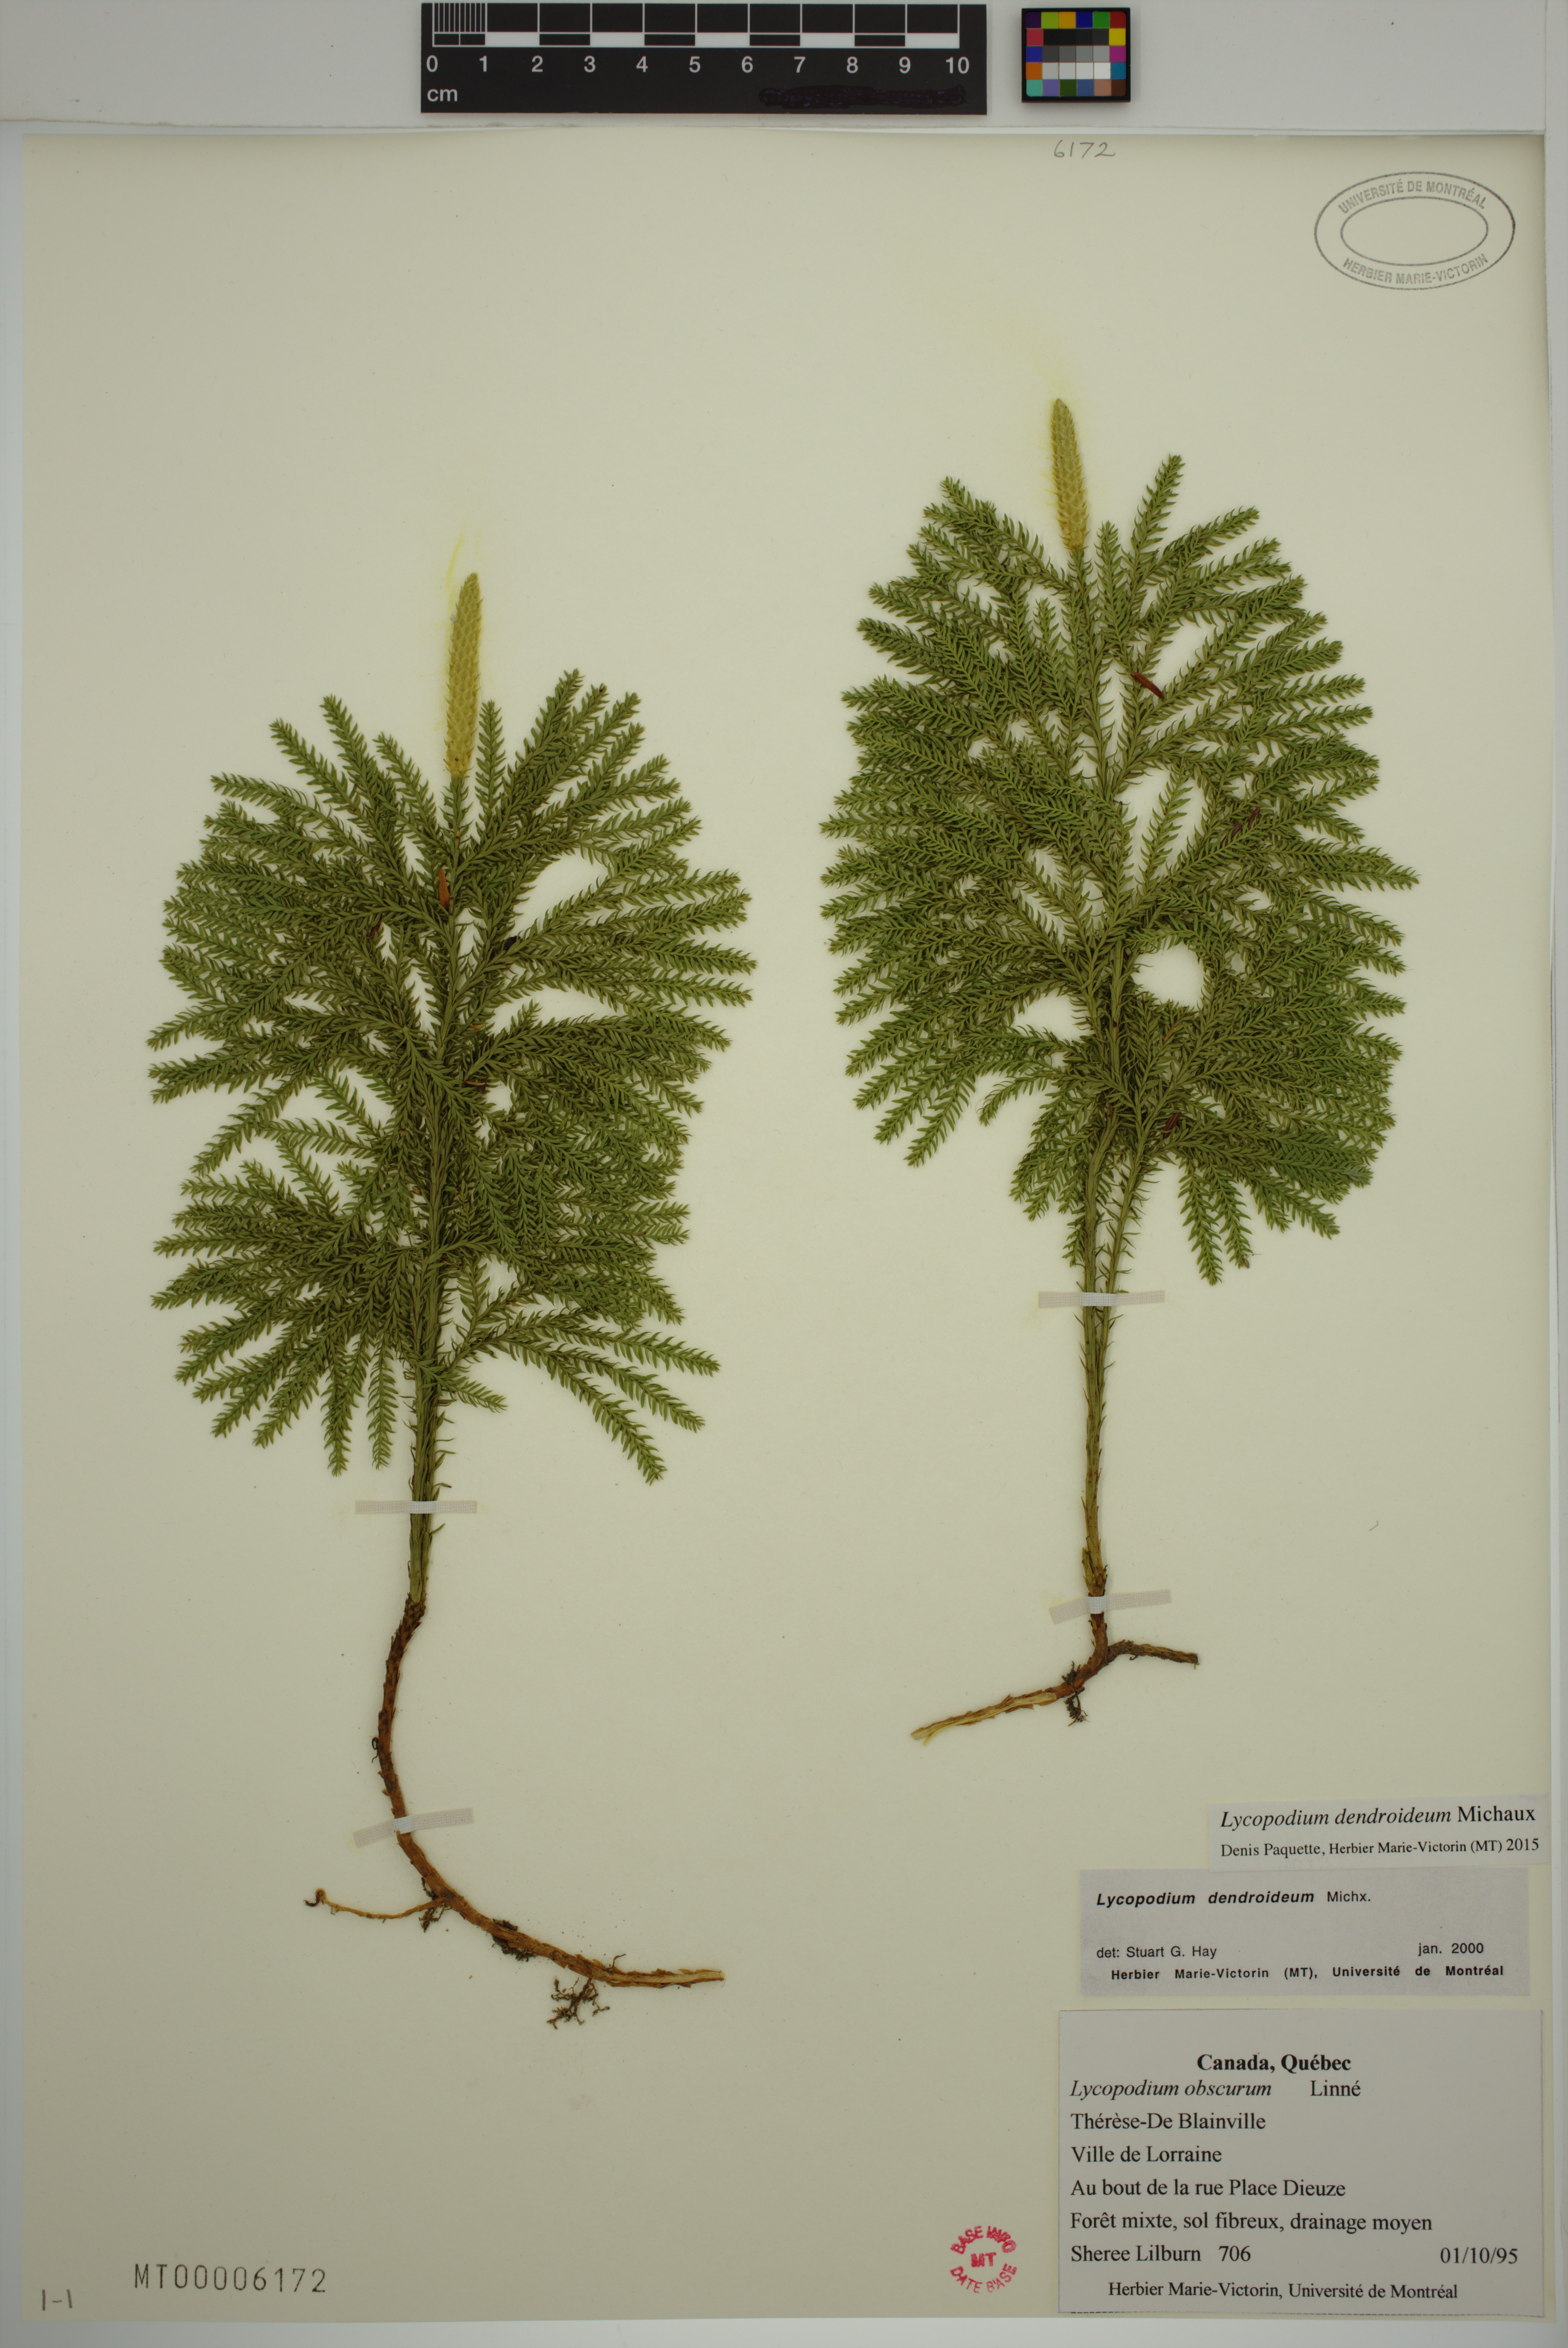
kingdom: Plantae
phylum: Tracheophyta
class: Lycopodiopsida
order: Lycopodiales
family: Lycopodiaceae
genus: Dendrolycopodium
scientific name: Dendrolycopodium dendroideum
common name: Northern tree-clubmoss
